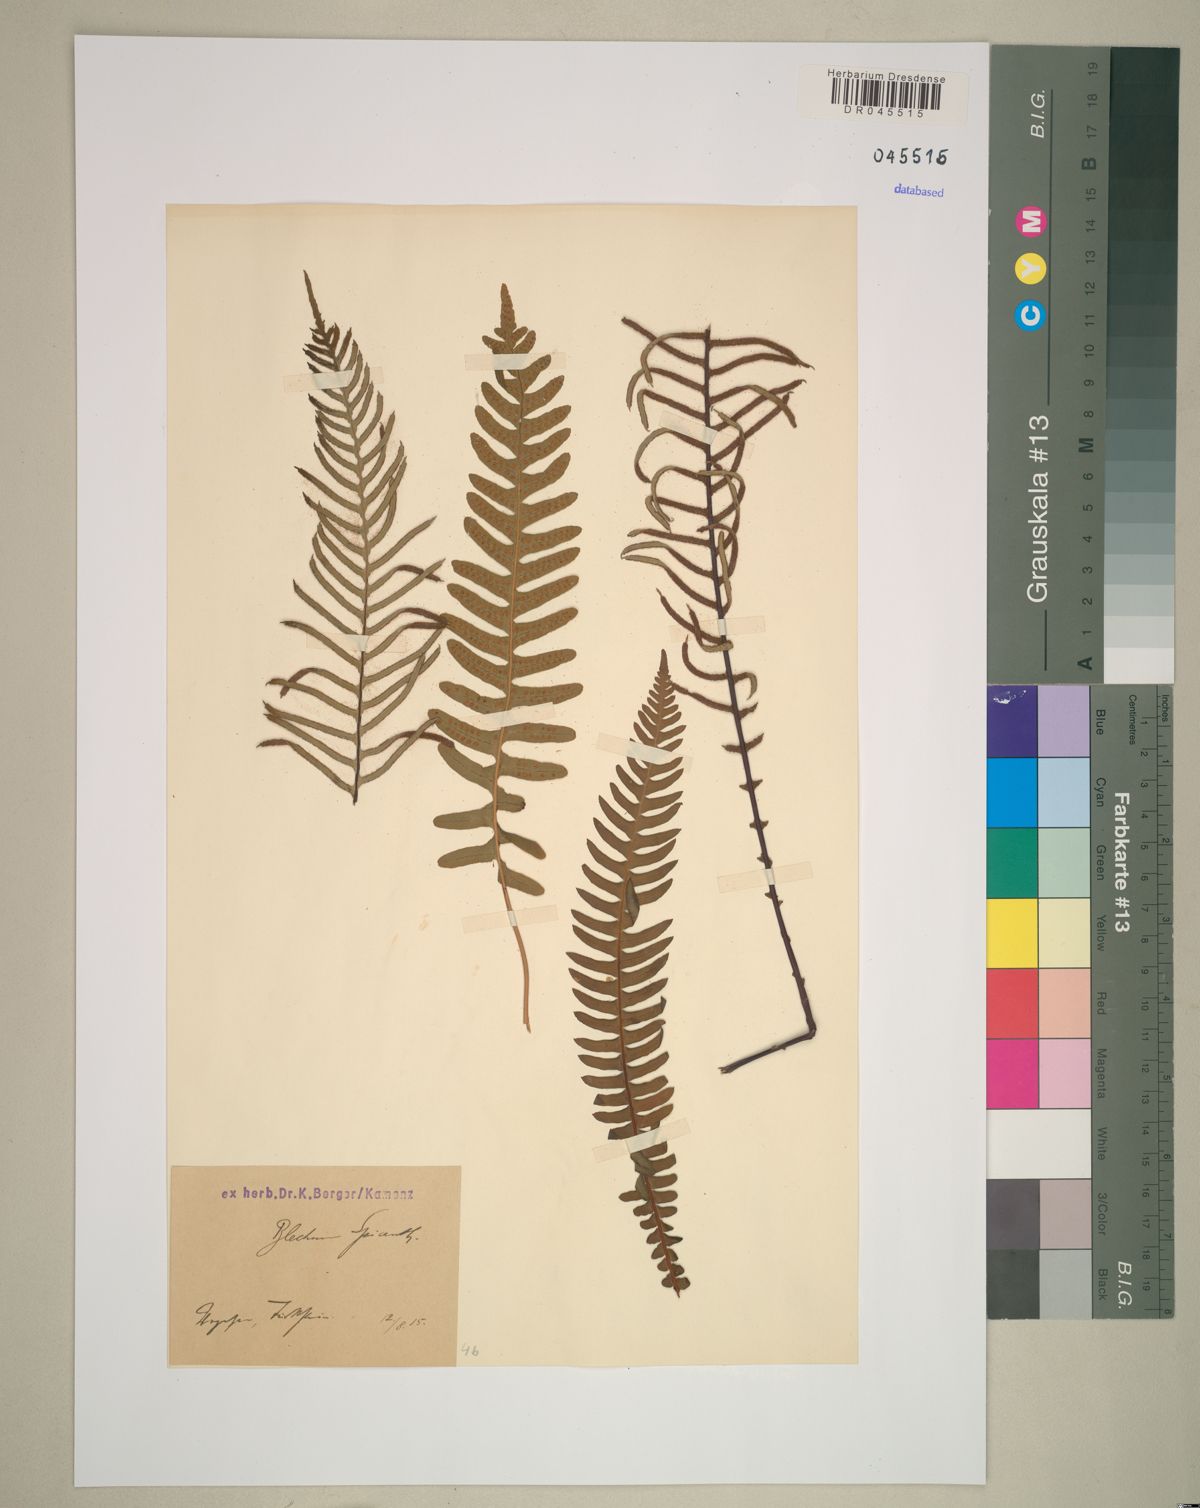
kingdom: Plantae
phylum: Tracheophyta
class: Polypodiopsida
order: Polypodiales
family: Blechnaceae
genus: Struthiopteris
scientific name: Struthiopteris spicant
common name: Deer fern
